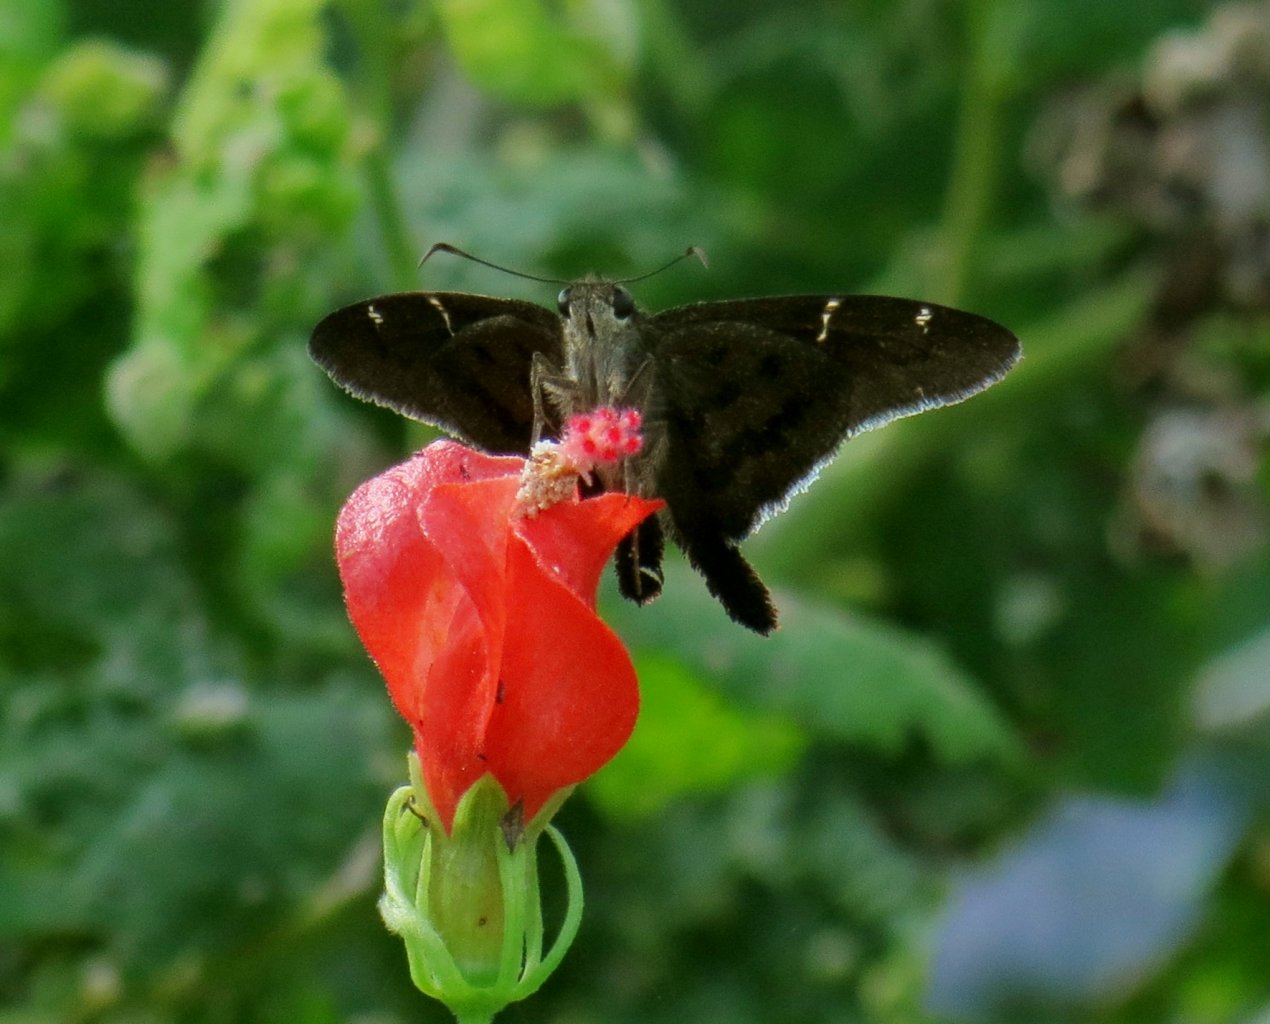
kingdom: Animalia
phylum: Arthropoda
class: Insecta
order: Lepidoptera
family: Hesperiidae
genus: Urbanus
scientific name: Urbanus procne
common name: Brown Longtail
